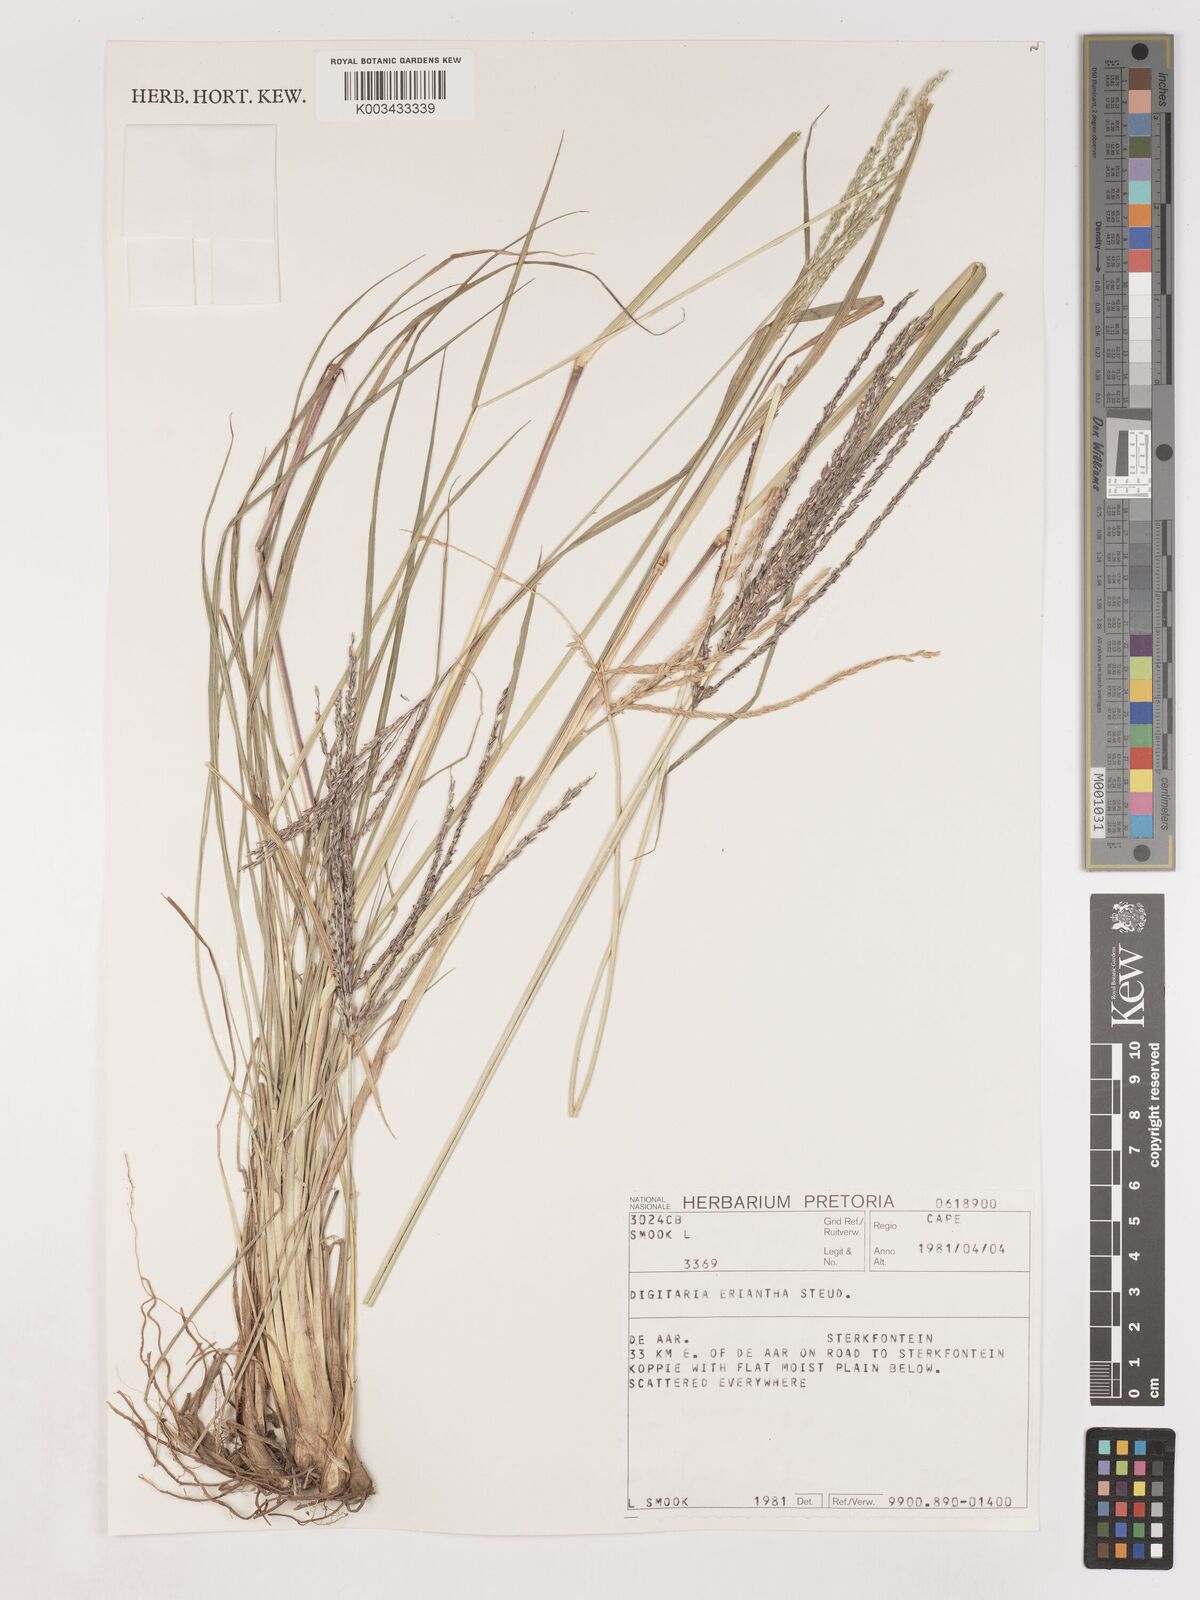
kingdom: Plantae
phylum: Tracheophyta
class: Liliopsida
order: Poales
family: Poaceae
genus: Digitaria
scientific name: Digitaria eriantha
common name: Digitgrass
